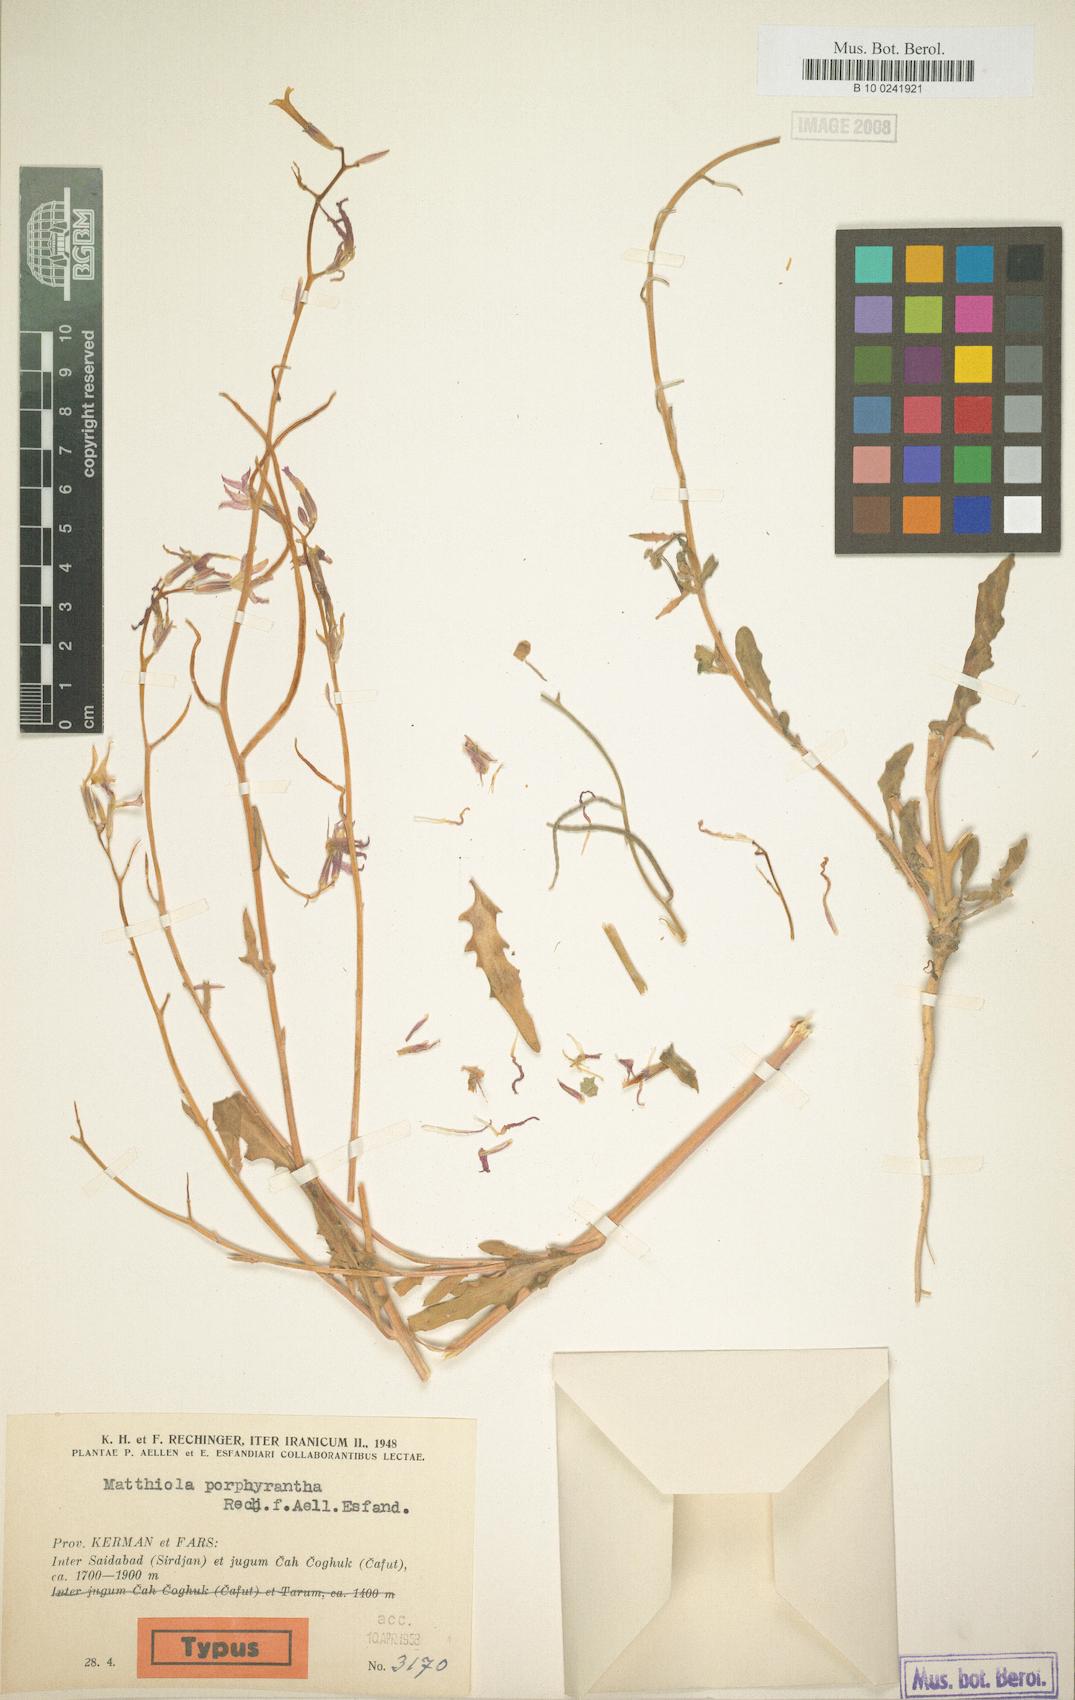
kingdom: Plantae
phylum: Tracheophyta
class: Magnoliopsida
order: Brassicales
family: Brassicaceae
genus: Matthiola
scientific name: Matthiola chenopodiifolia
